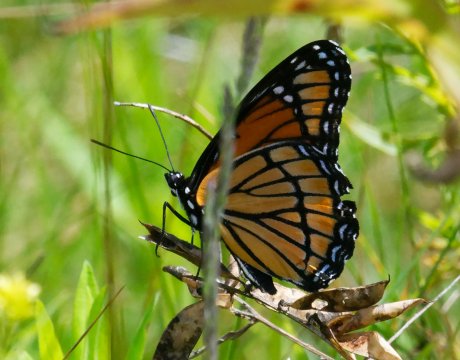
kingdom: Animalia
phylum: Arthropoda
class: Insecta
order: Lepidoptera
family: Nymphalidae
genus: Limenitis
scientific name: Limenitis archippus
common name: Viceroy
